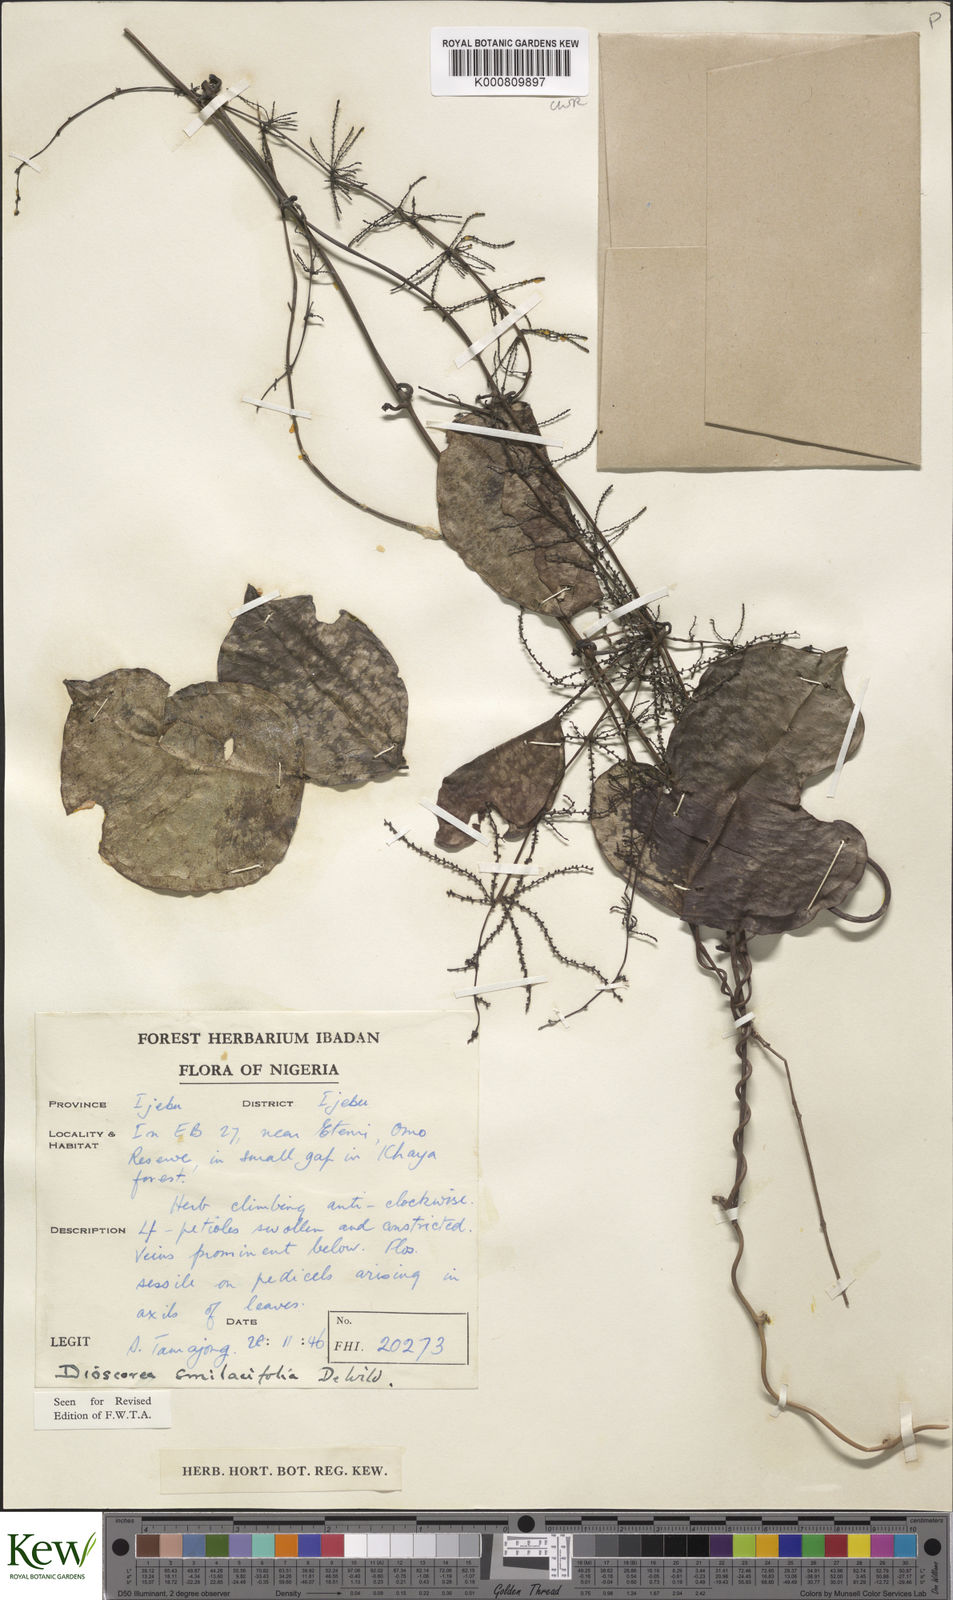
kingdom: Plantae
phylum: Tracheophyta
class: Liliopsida
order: Dioscoreales
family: Dioscoreaceae
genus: Dioscorea
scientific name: Dioscorea smilacifolia
